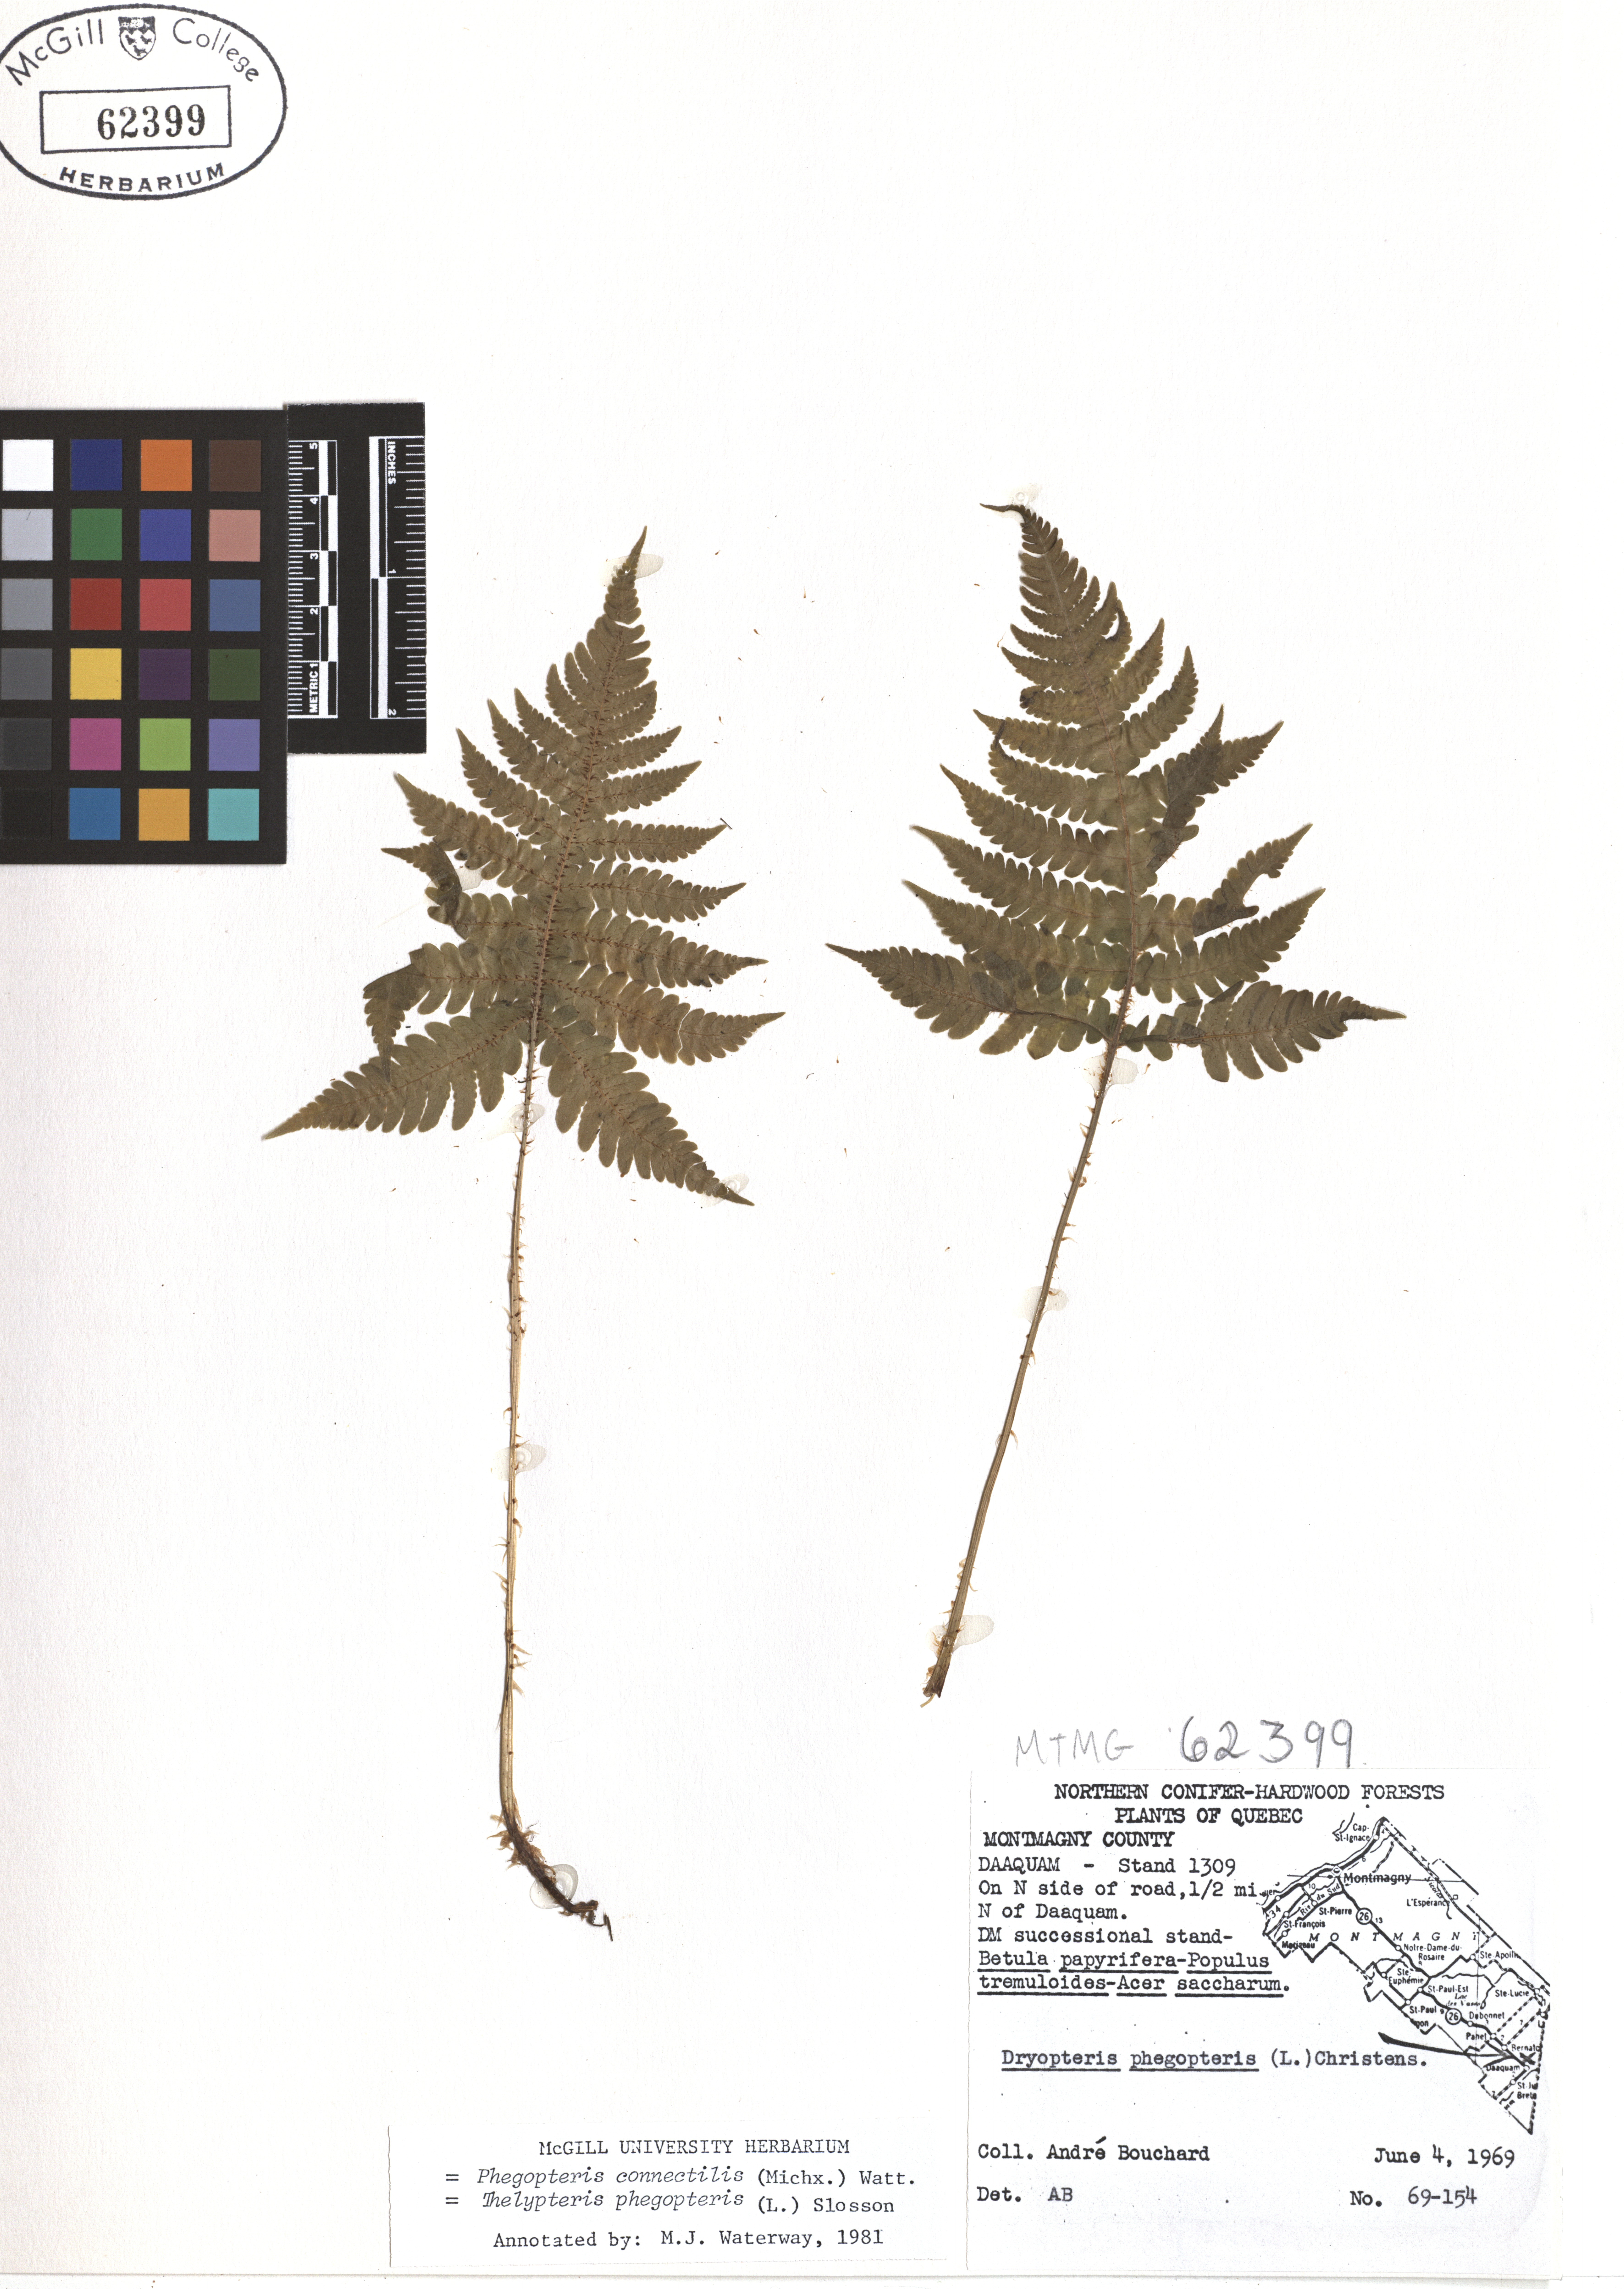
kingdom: Plantae
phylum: Tracheophyta
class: Polypodiopsida
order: Polypodiales
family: Thelypteridaceae
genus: Phegopteris
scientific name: Phegopteris connectilis
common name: Beech fern
